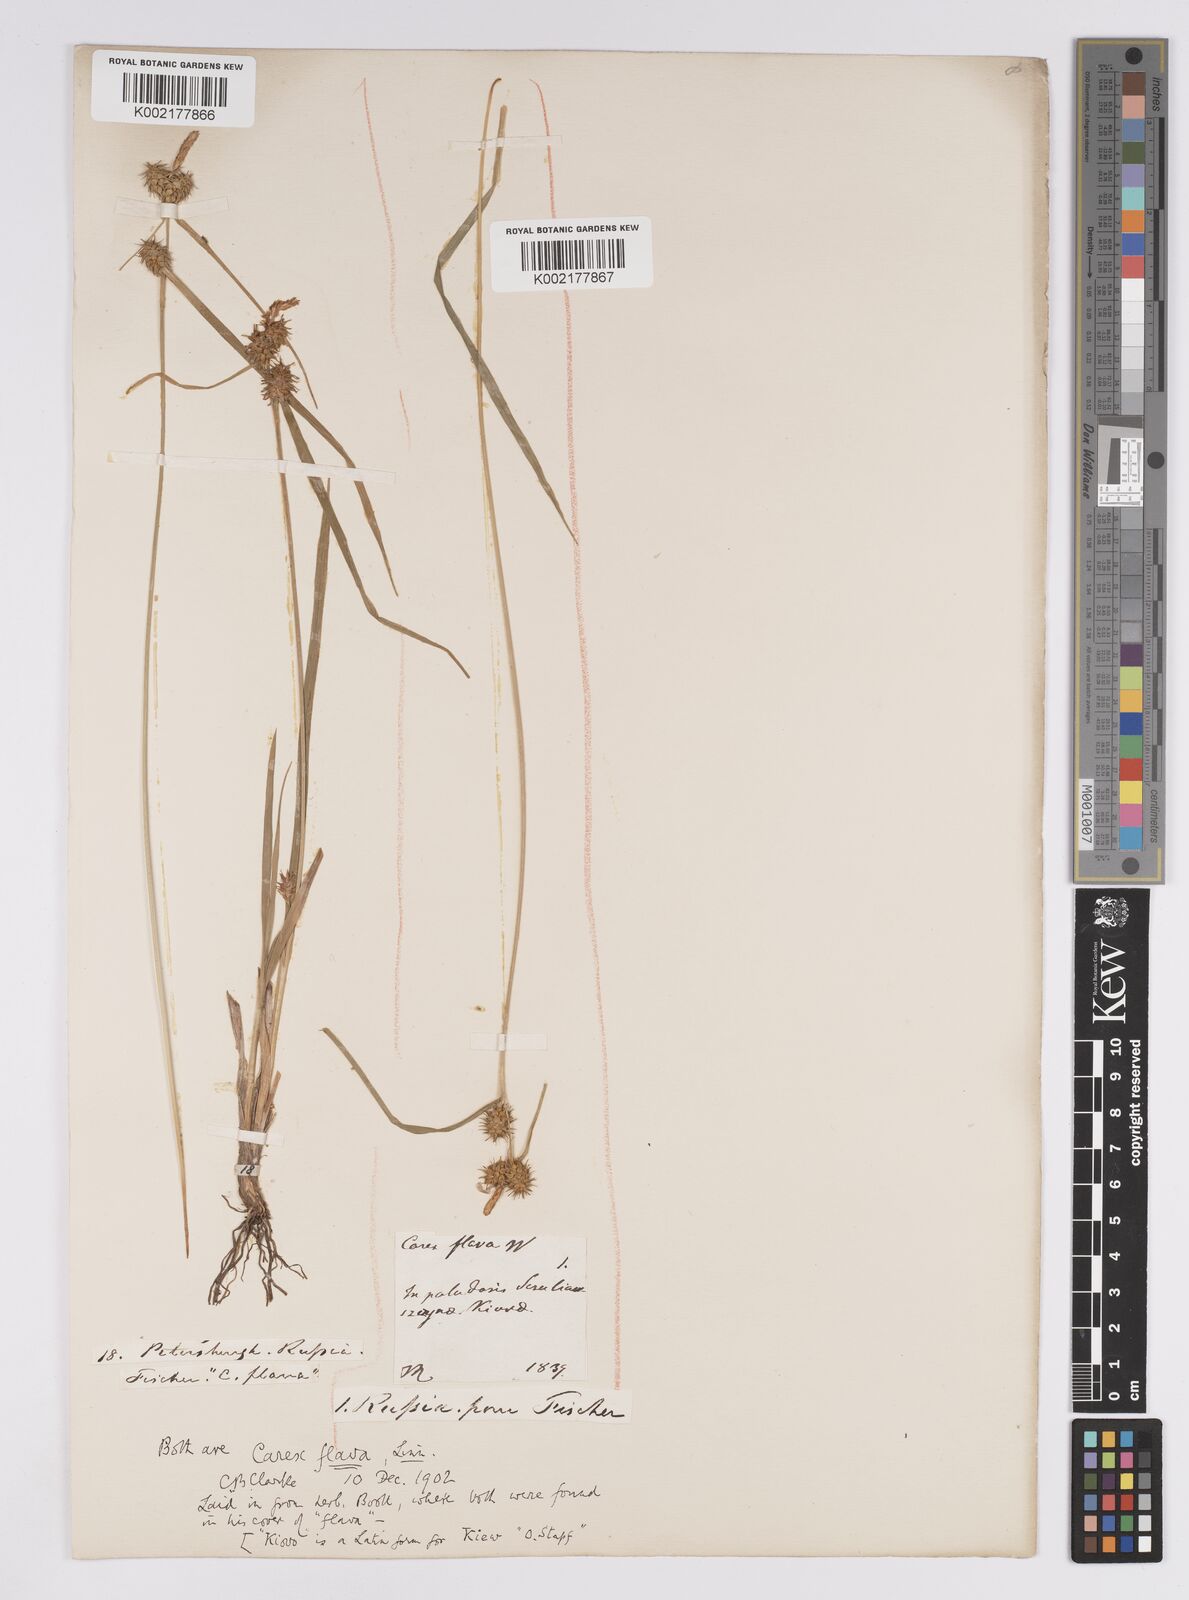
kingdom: Plantae
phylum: Tracheophyta
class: Liliopsida
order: Poales
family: Cyperaceae
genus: Carex
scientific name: Carex flava
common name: Large yellow-sedge
